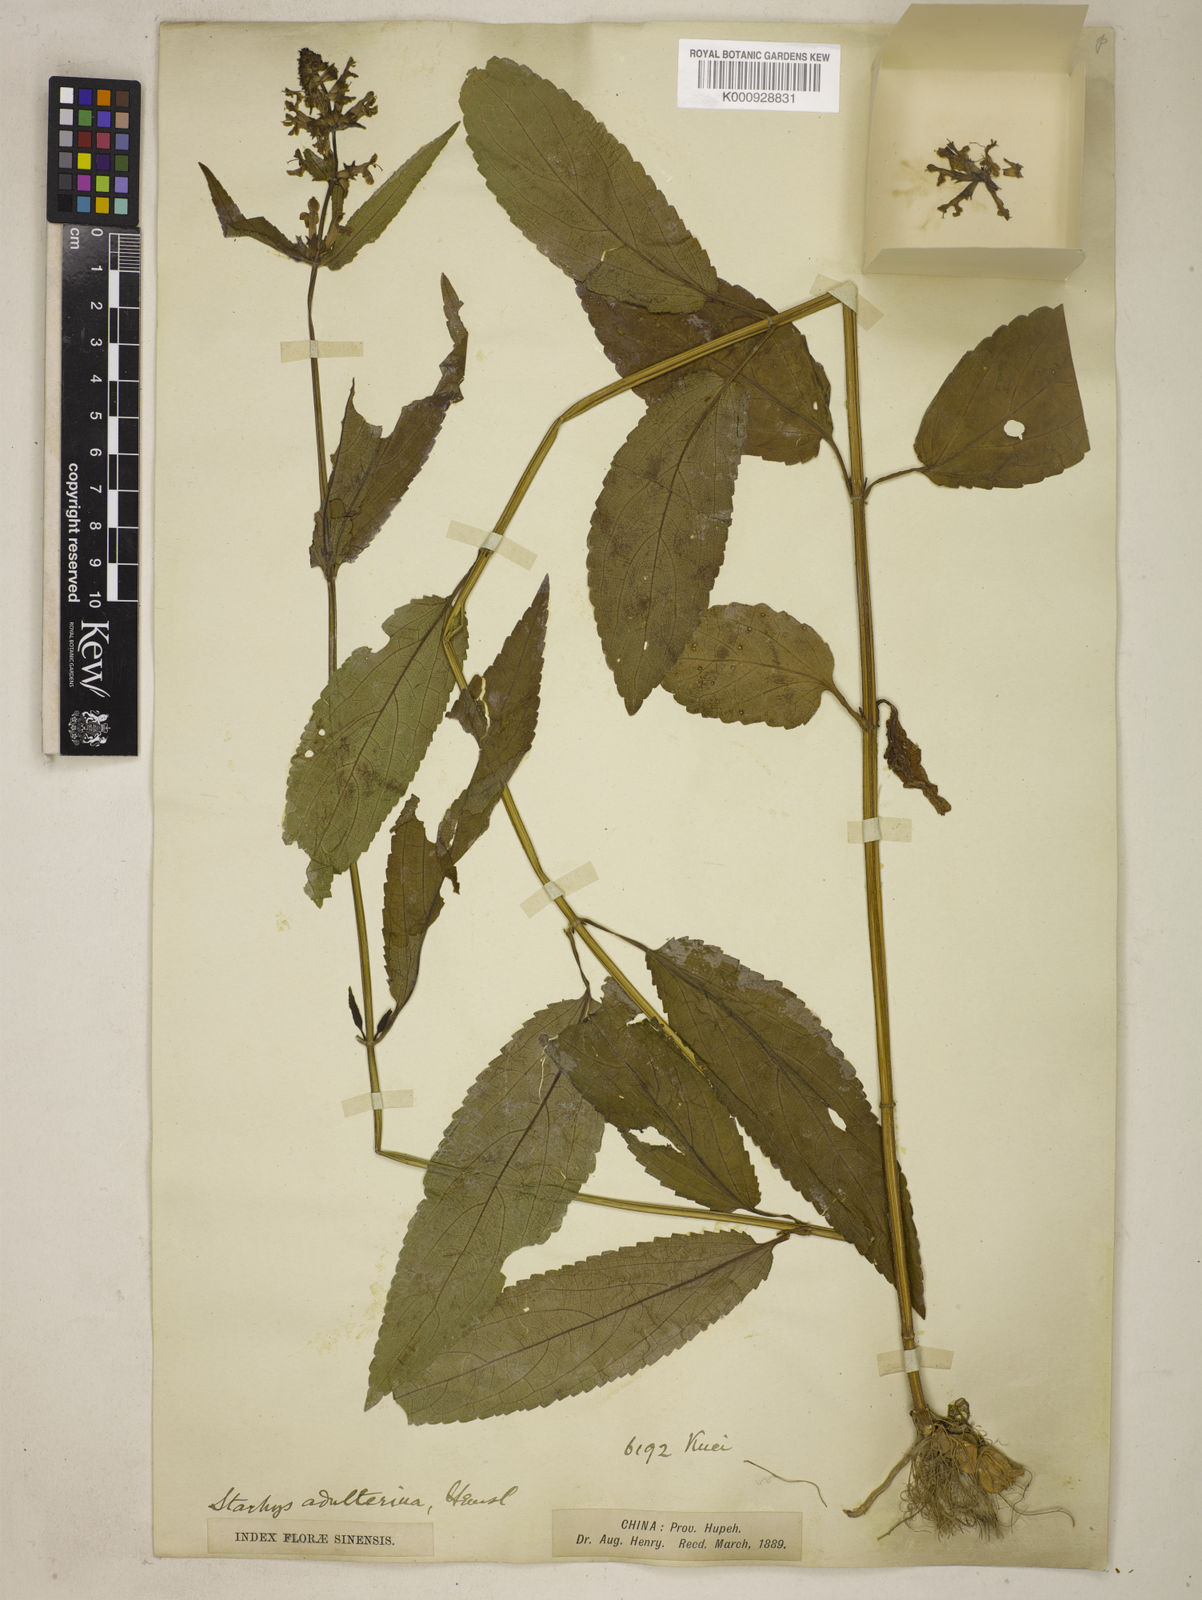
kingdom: Plantae
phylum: Tracheophyta
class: Magnoliopsida
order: Lamiales
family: Lamiaceae
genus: Stachys
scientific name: Stachys adulterina
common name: Hubei-artichoke
